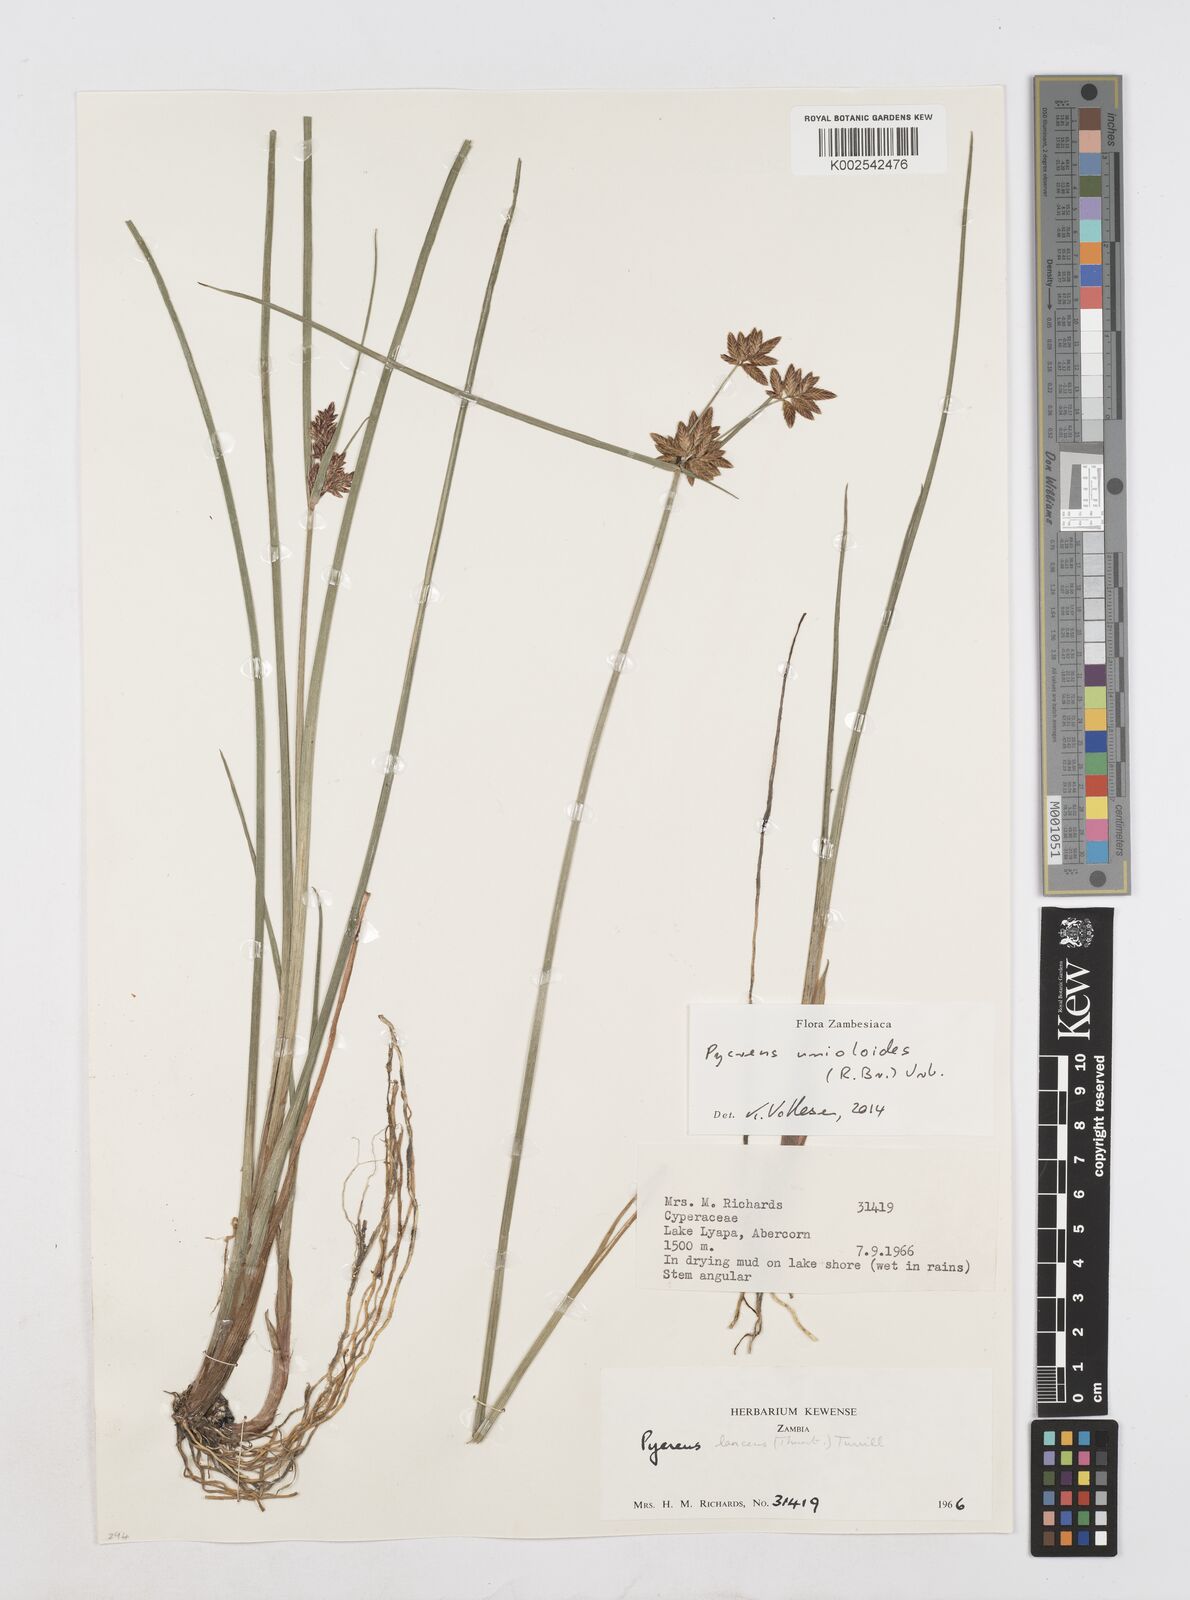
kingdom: Plantae
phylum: Tracheophyta
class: Liliopsida
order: Poales
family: Cyperaceae
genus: Cyperus
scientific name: Cyperus unioloides
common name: Uniola flatsedge
